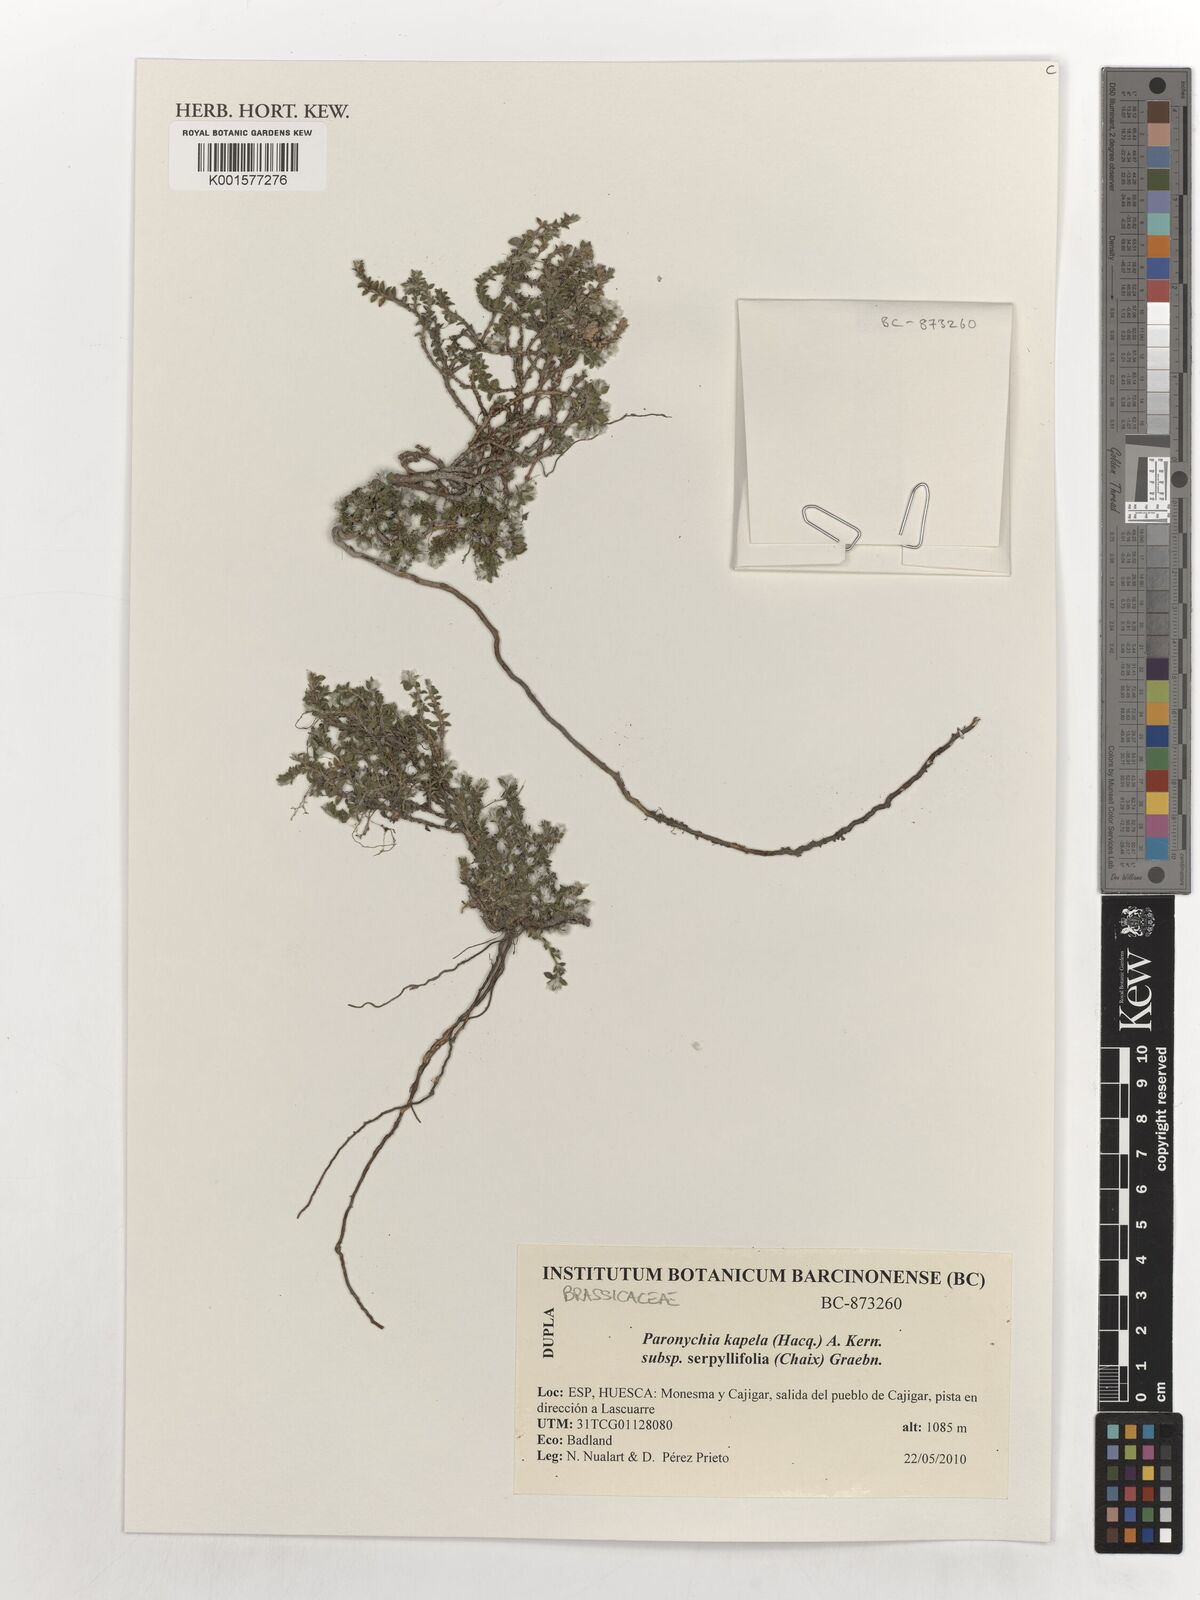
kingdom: Plantae
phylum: Tracheophyta
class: Magnoliopsida
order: Caryophyllales
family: Caryophyllaceae
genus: Paronychia
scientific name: Paronychia kapela
